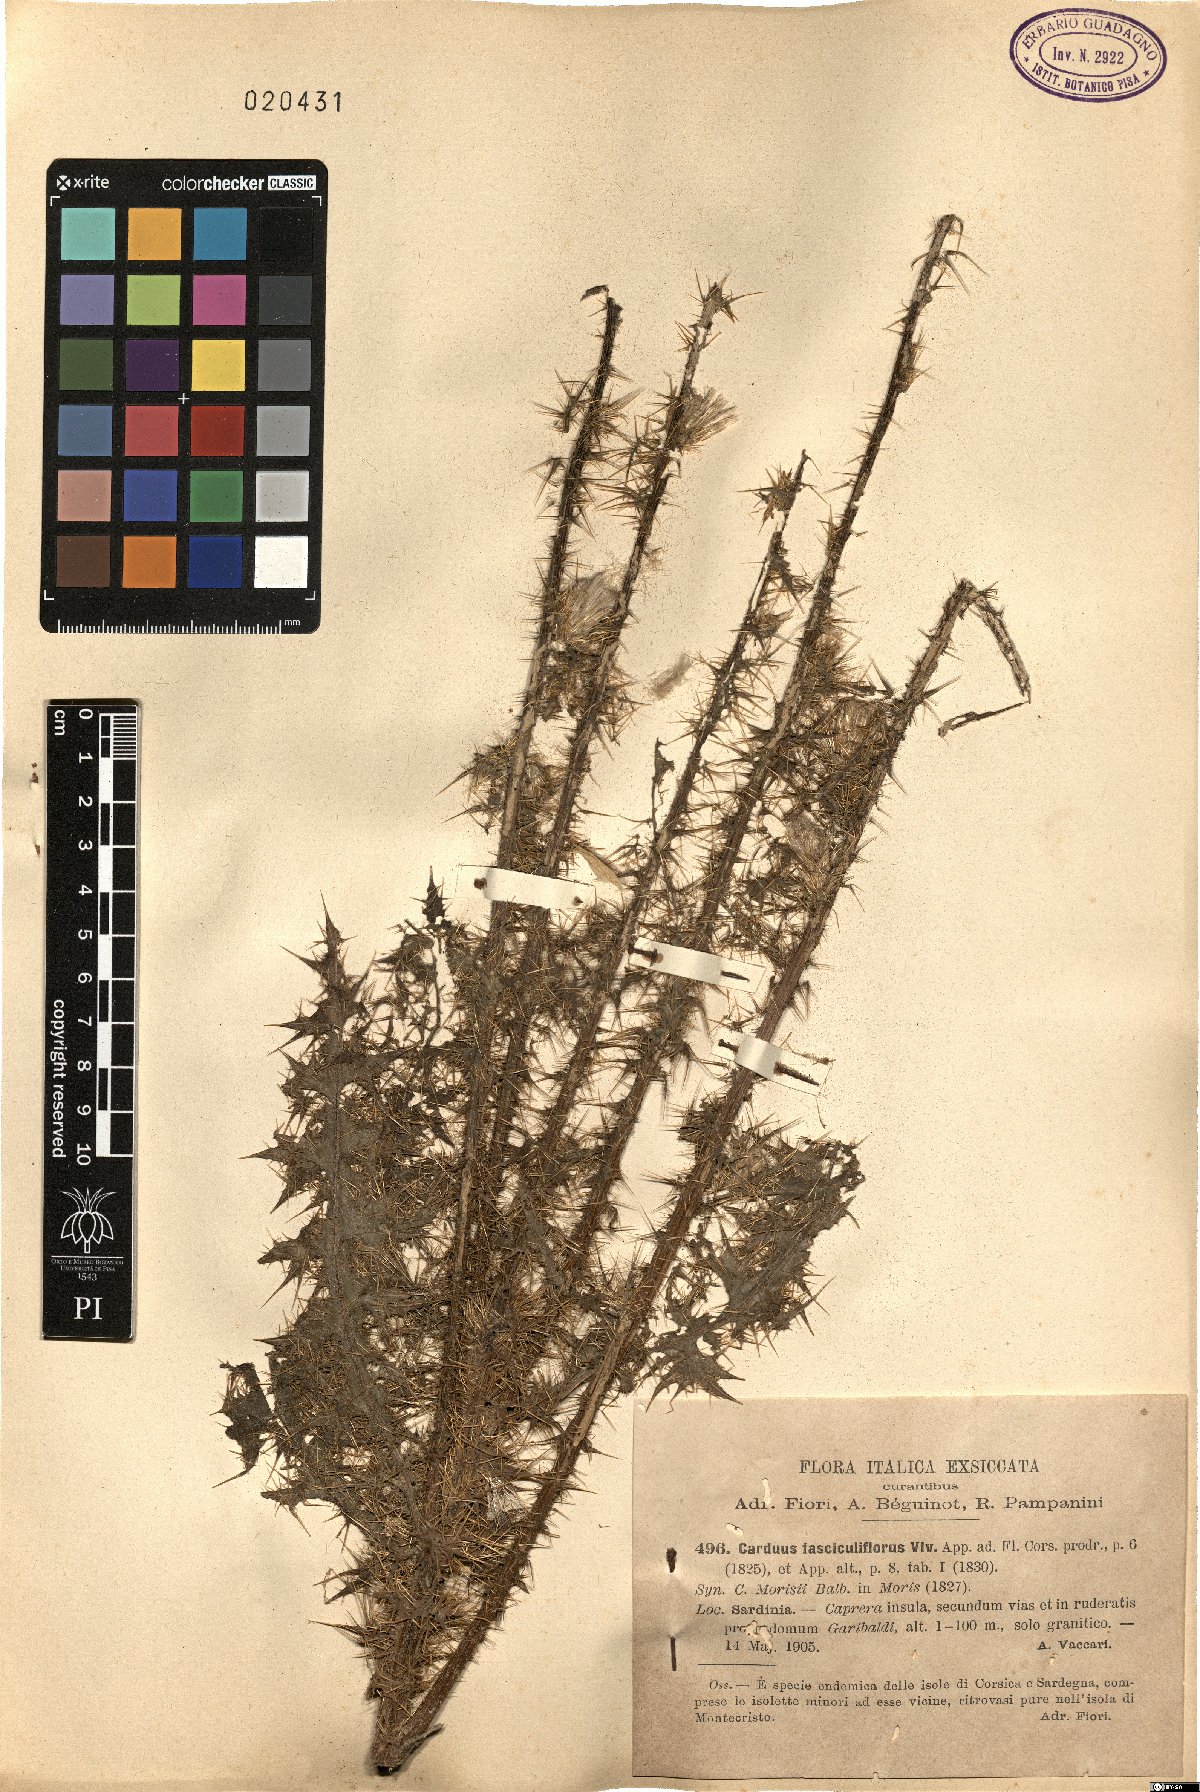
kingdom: Plantae
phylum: Tracheophyta
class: Magnoliopsida
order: Asterales
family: Asteraceae
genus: Carduus
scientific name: Carduus fasciculiflorus
